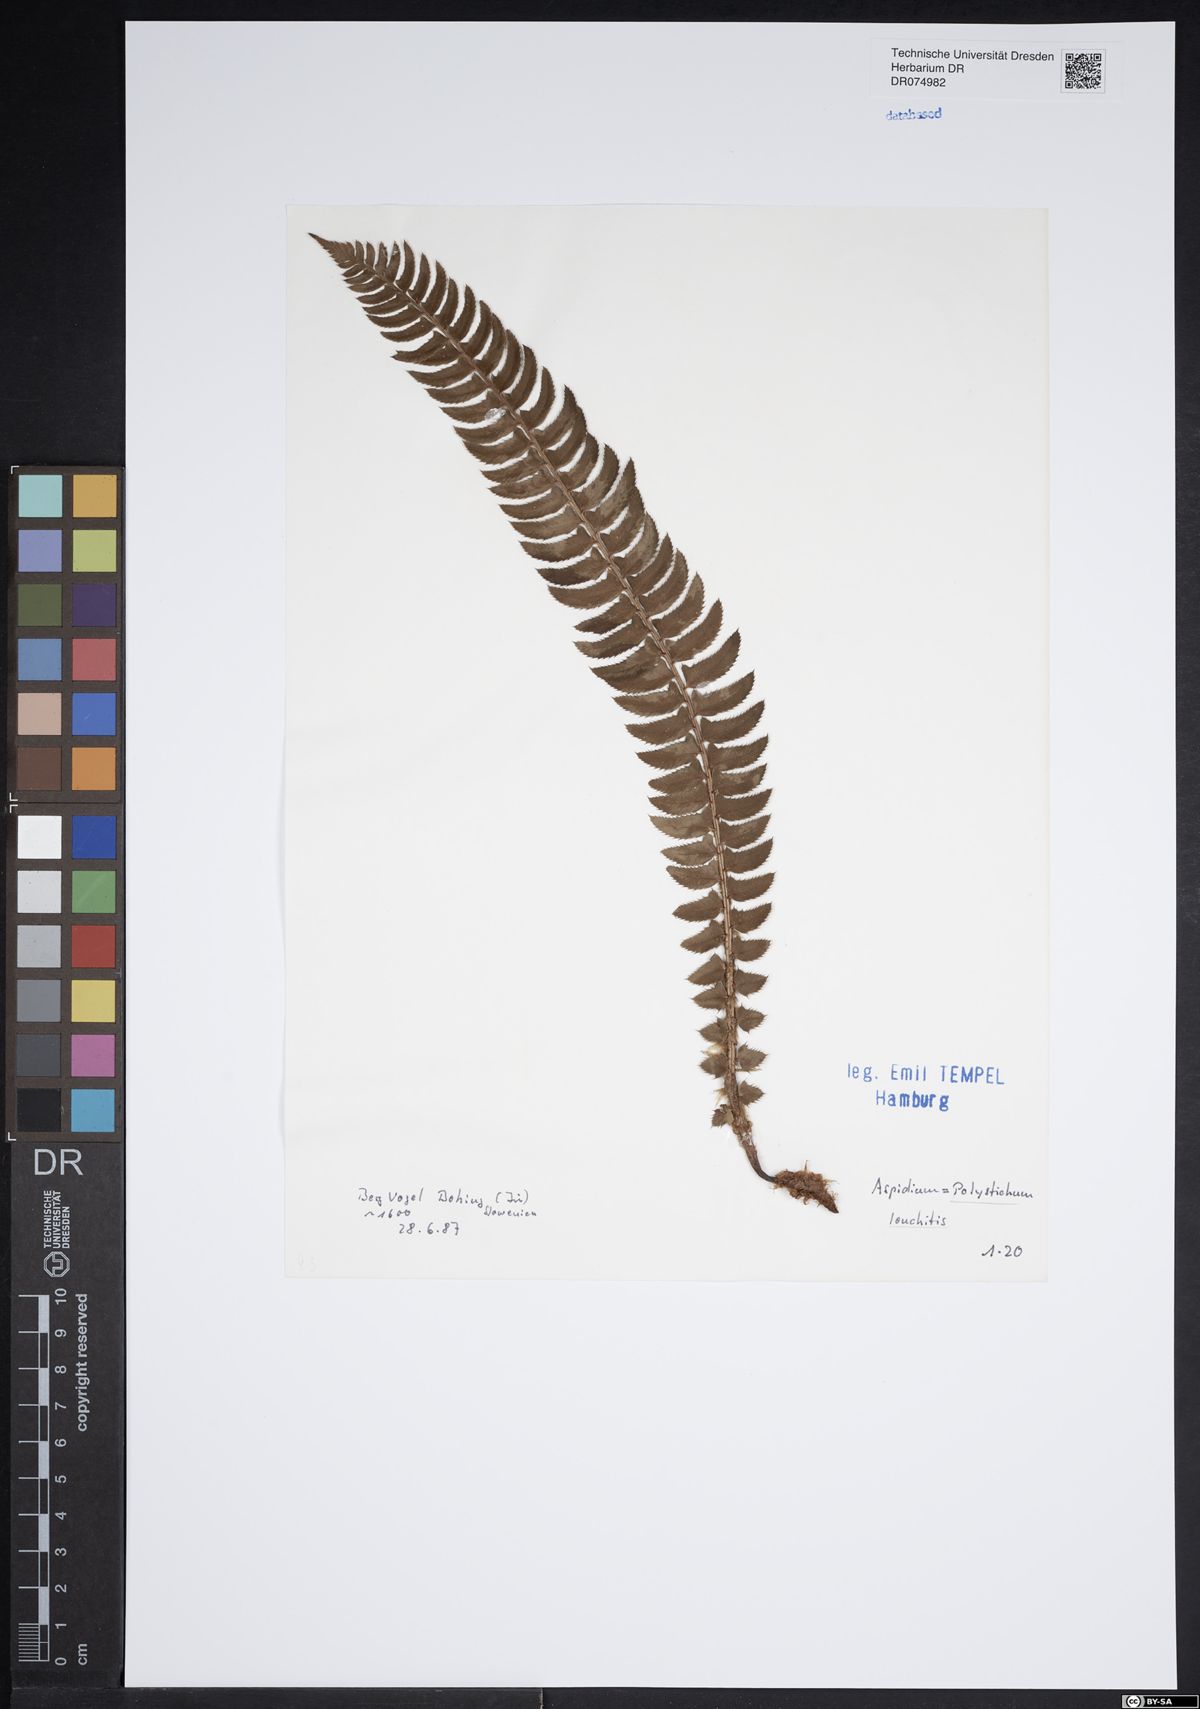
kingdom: Plantae
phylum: Tracheophyta
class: Polypodiopsida
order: Polypodiales
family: Dryopteridaceae
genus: Polystichum
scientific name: Polystichum lonchitis
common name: Holly fern
